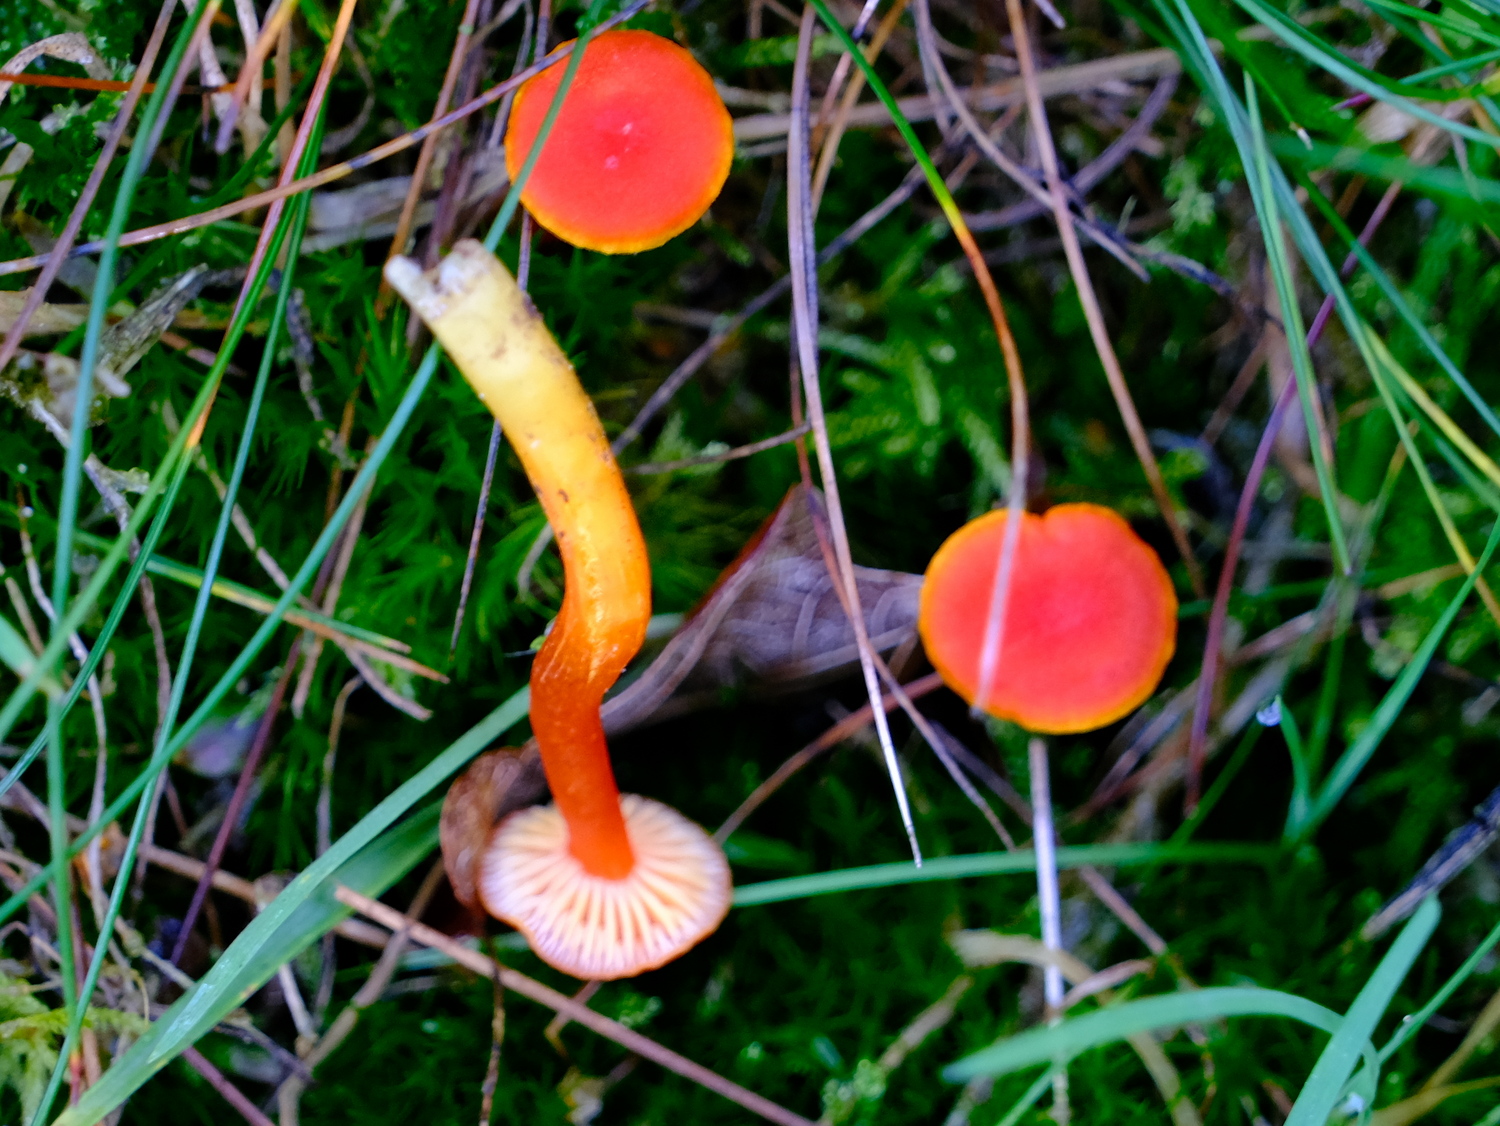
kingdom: Fungi
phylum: Basidiomycota
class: Agaricomycetes
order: Agaricales
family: Hygrophoraceae
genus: Hygrocybe
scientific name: Hygrocybe miniata
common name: mønje-vokshat
